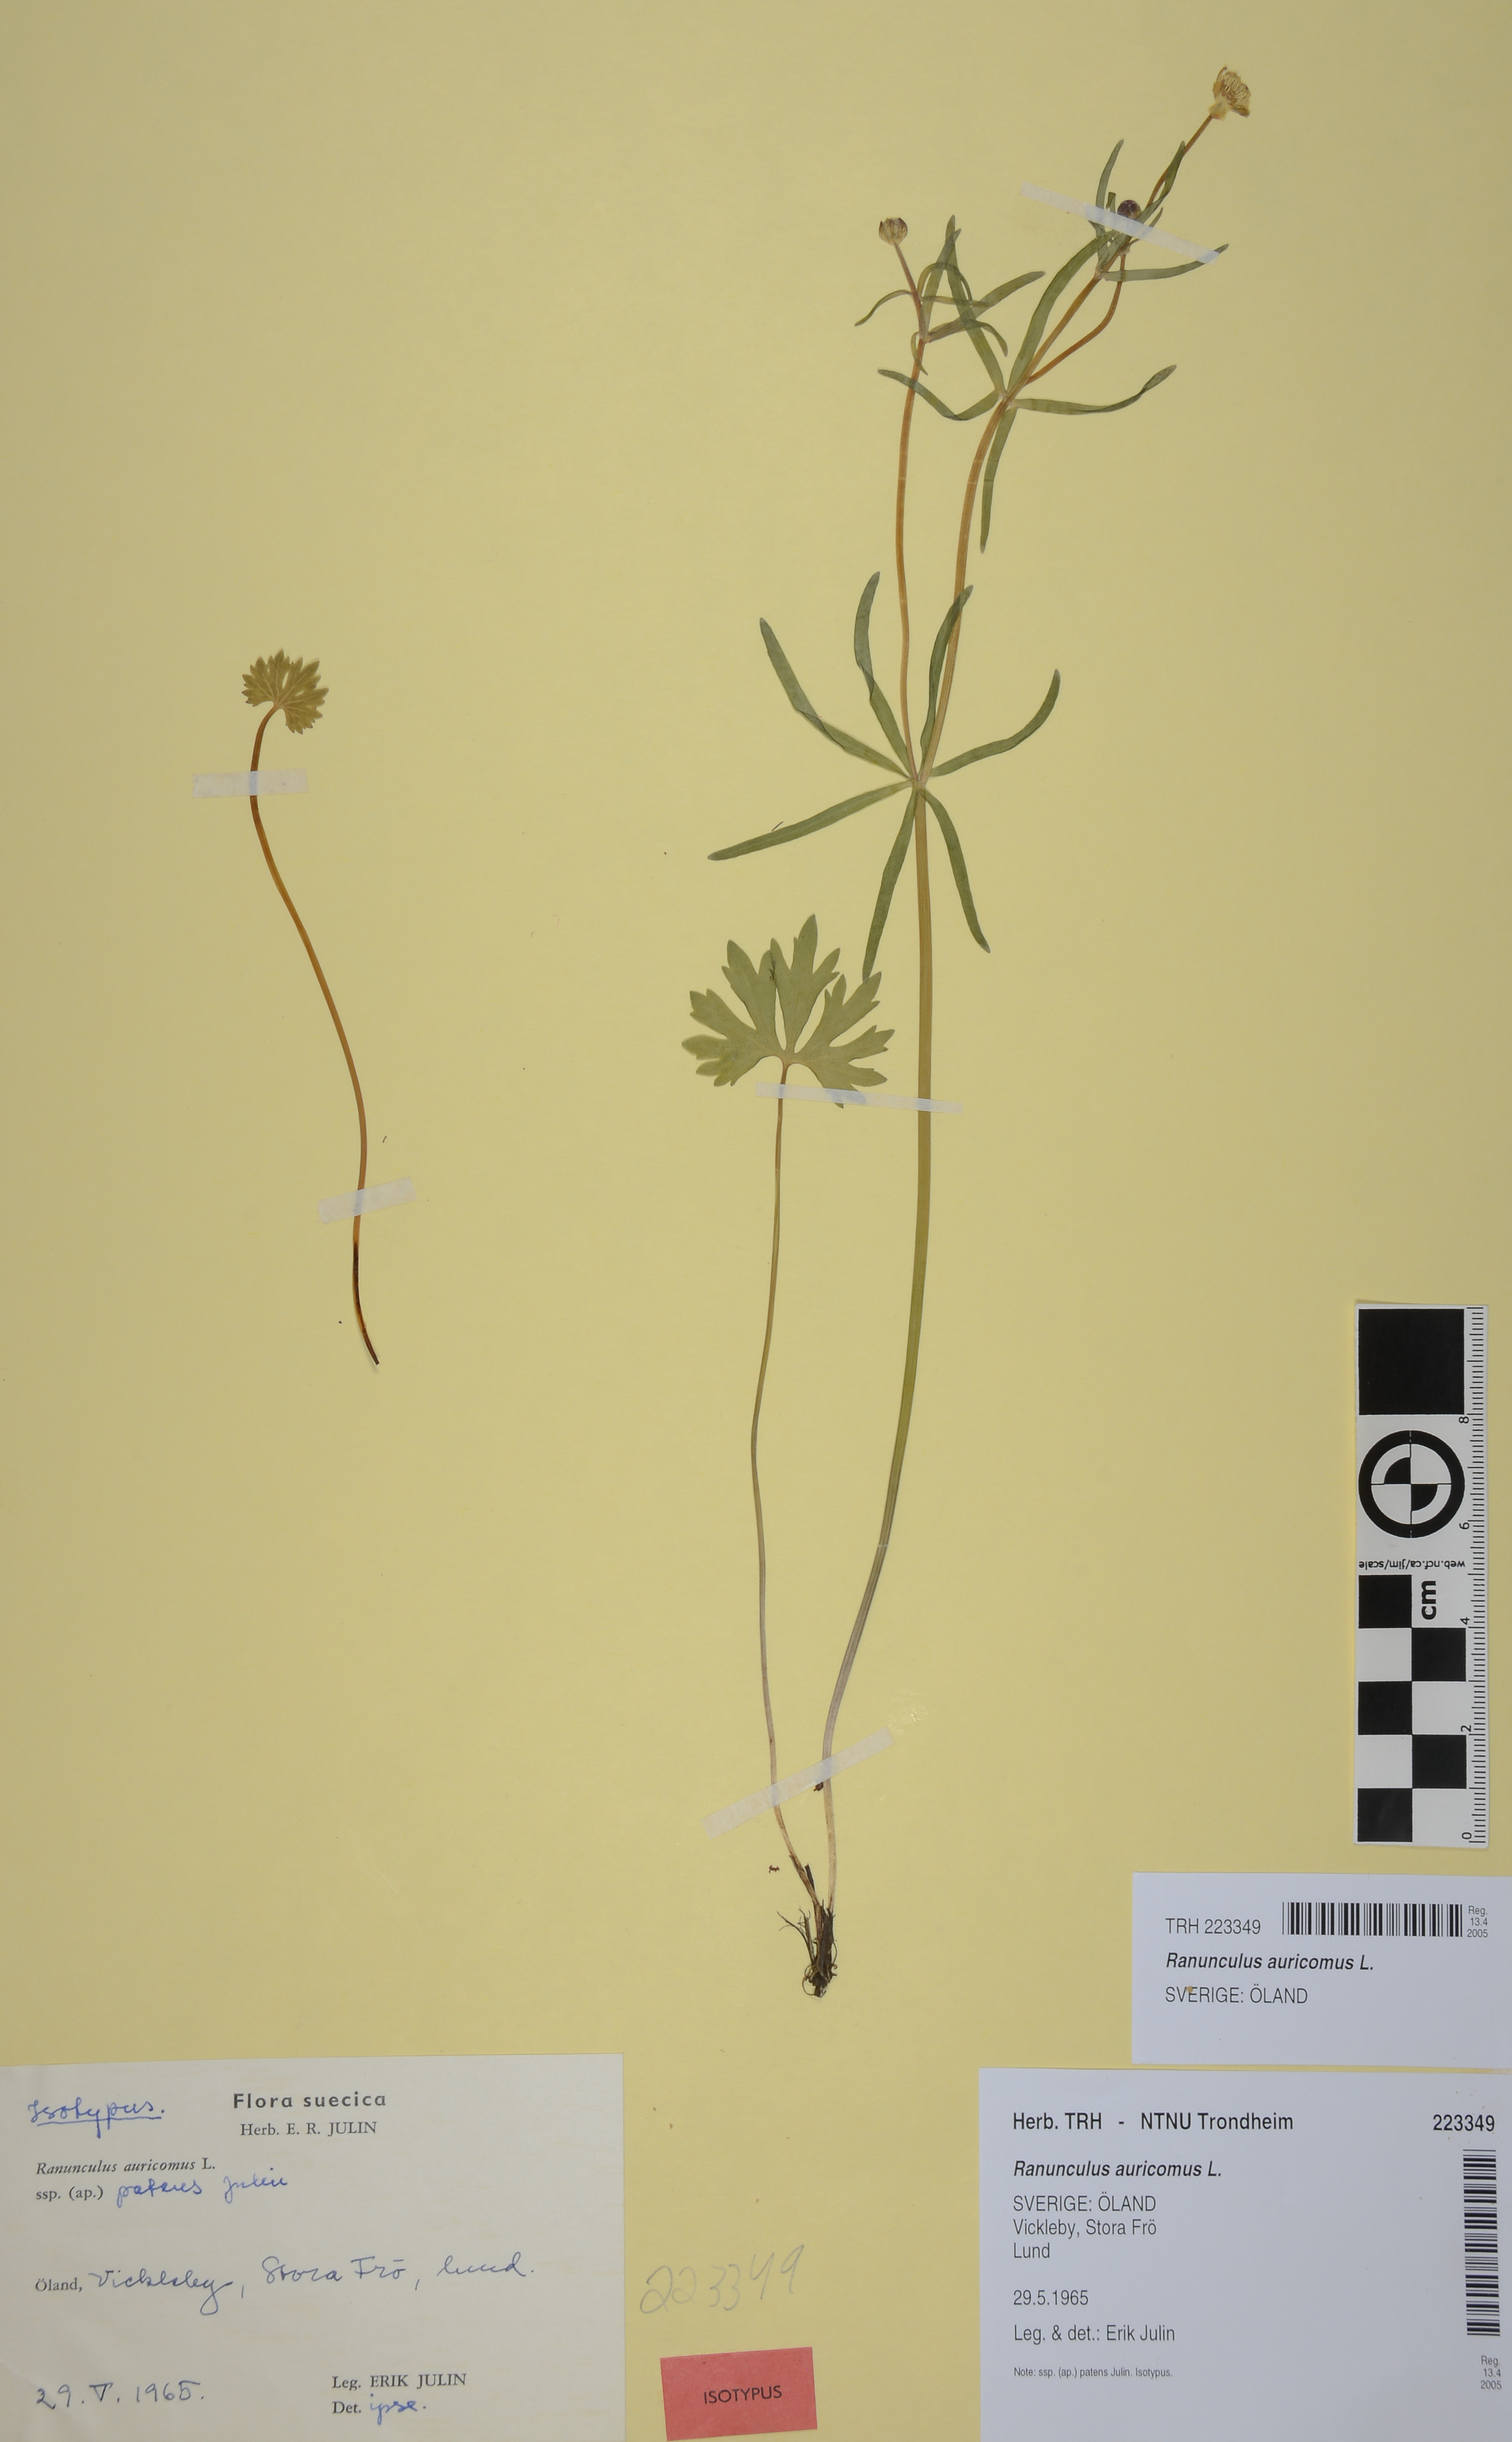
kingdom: Plantae
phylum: Tracheophyta
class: Magnoliopsida
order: Ranunculales
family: Ranunculaceae
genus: Ranunculus
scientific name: Ranunculus auricomus
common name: Goldilocks buttercup
